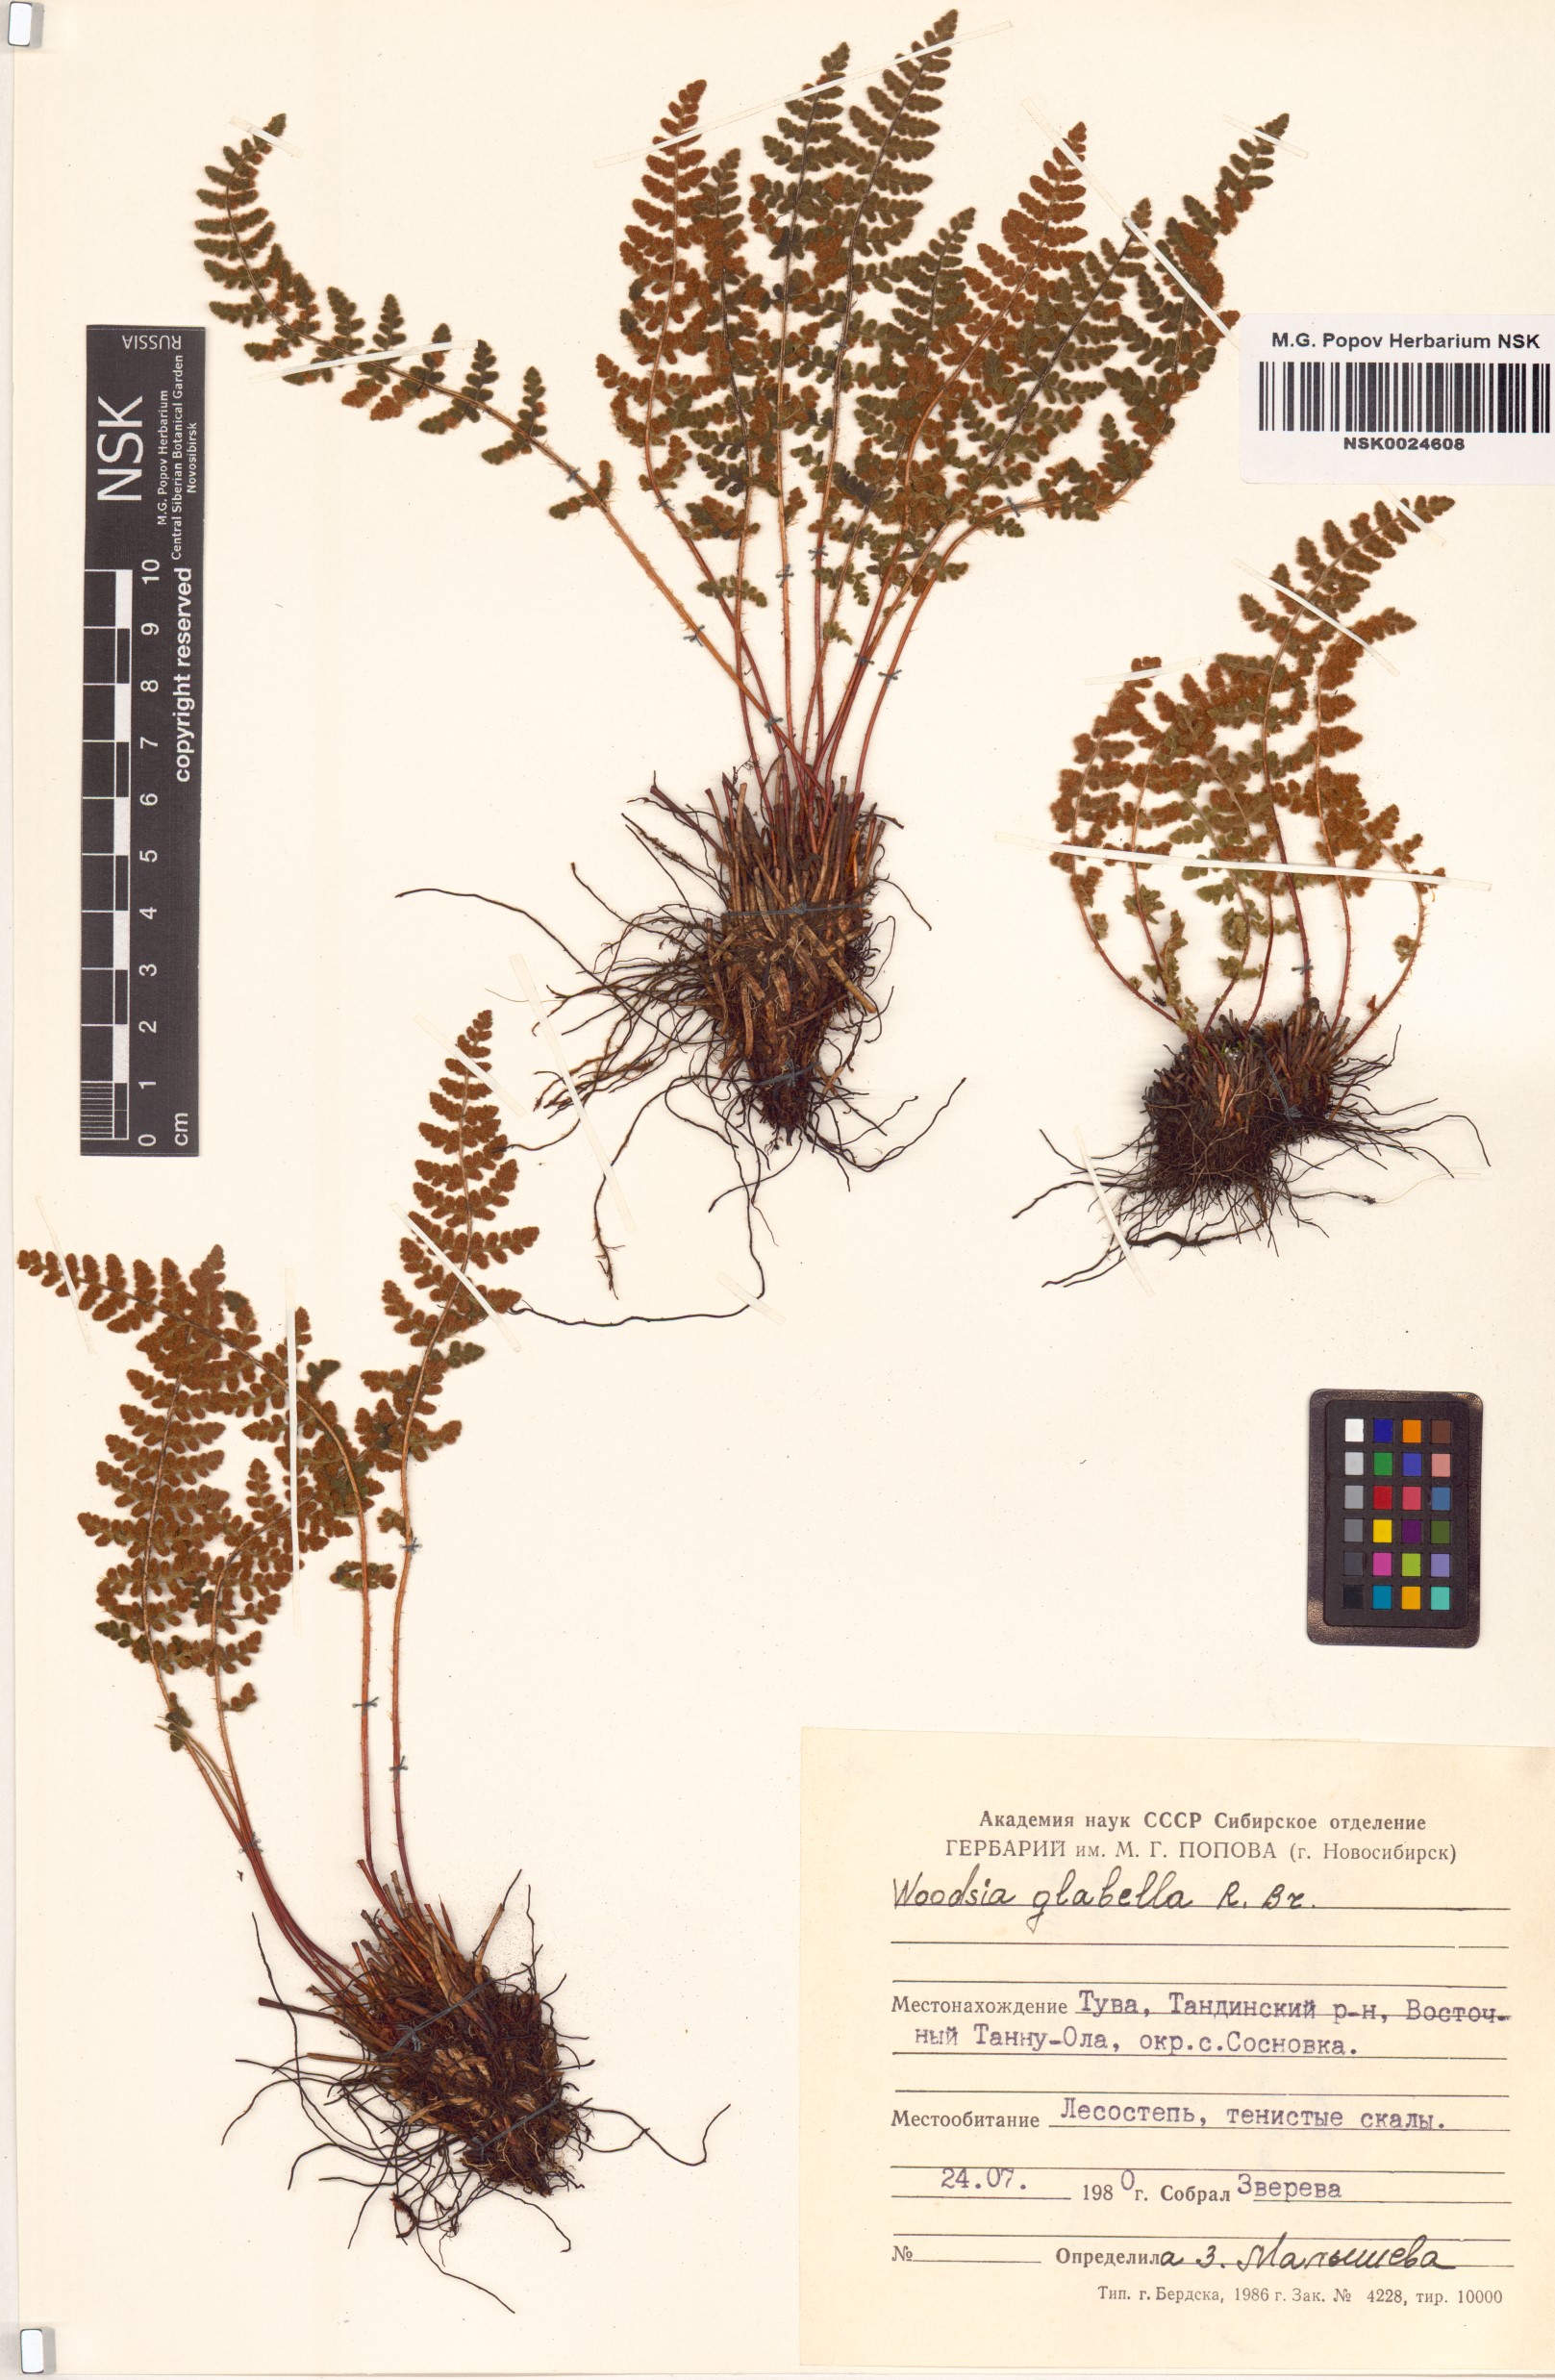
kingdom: Plantae
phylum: Tracheophyta
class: Polypodiopsida
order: Polypodiales
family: Woodsiaceae
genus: Woodsia
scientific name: Woodsia glabella
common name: Smooth woodsia
